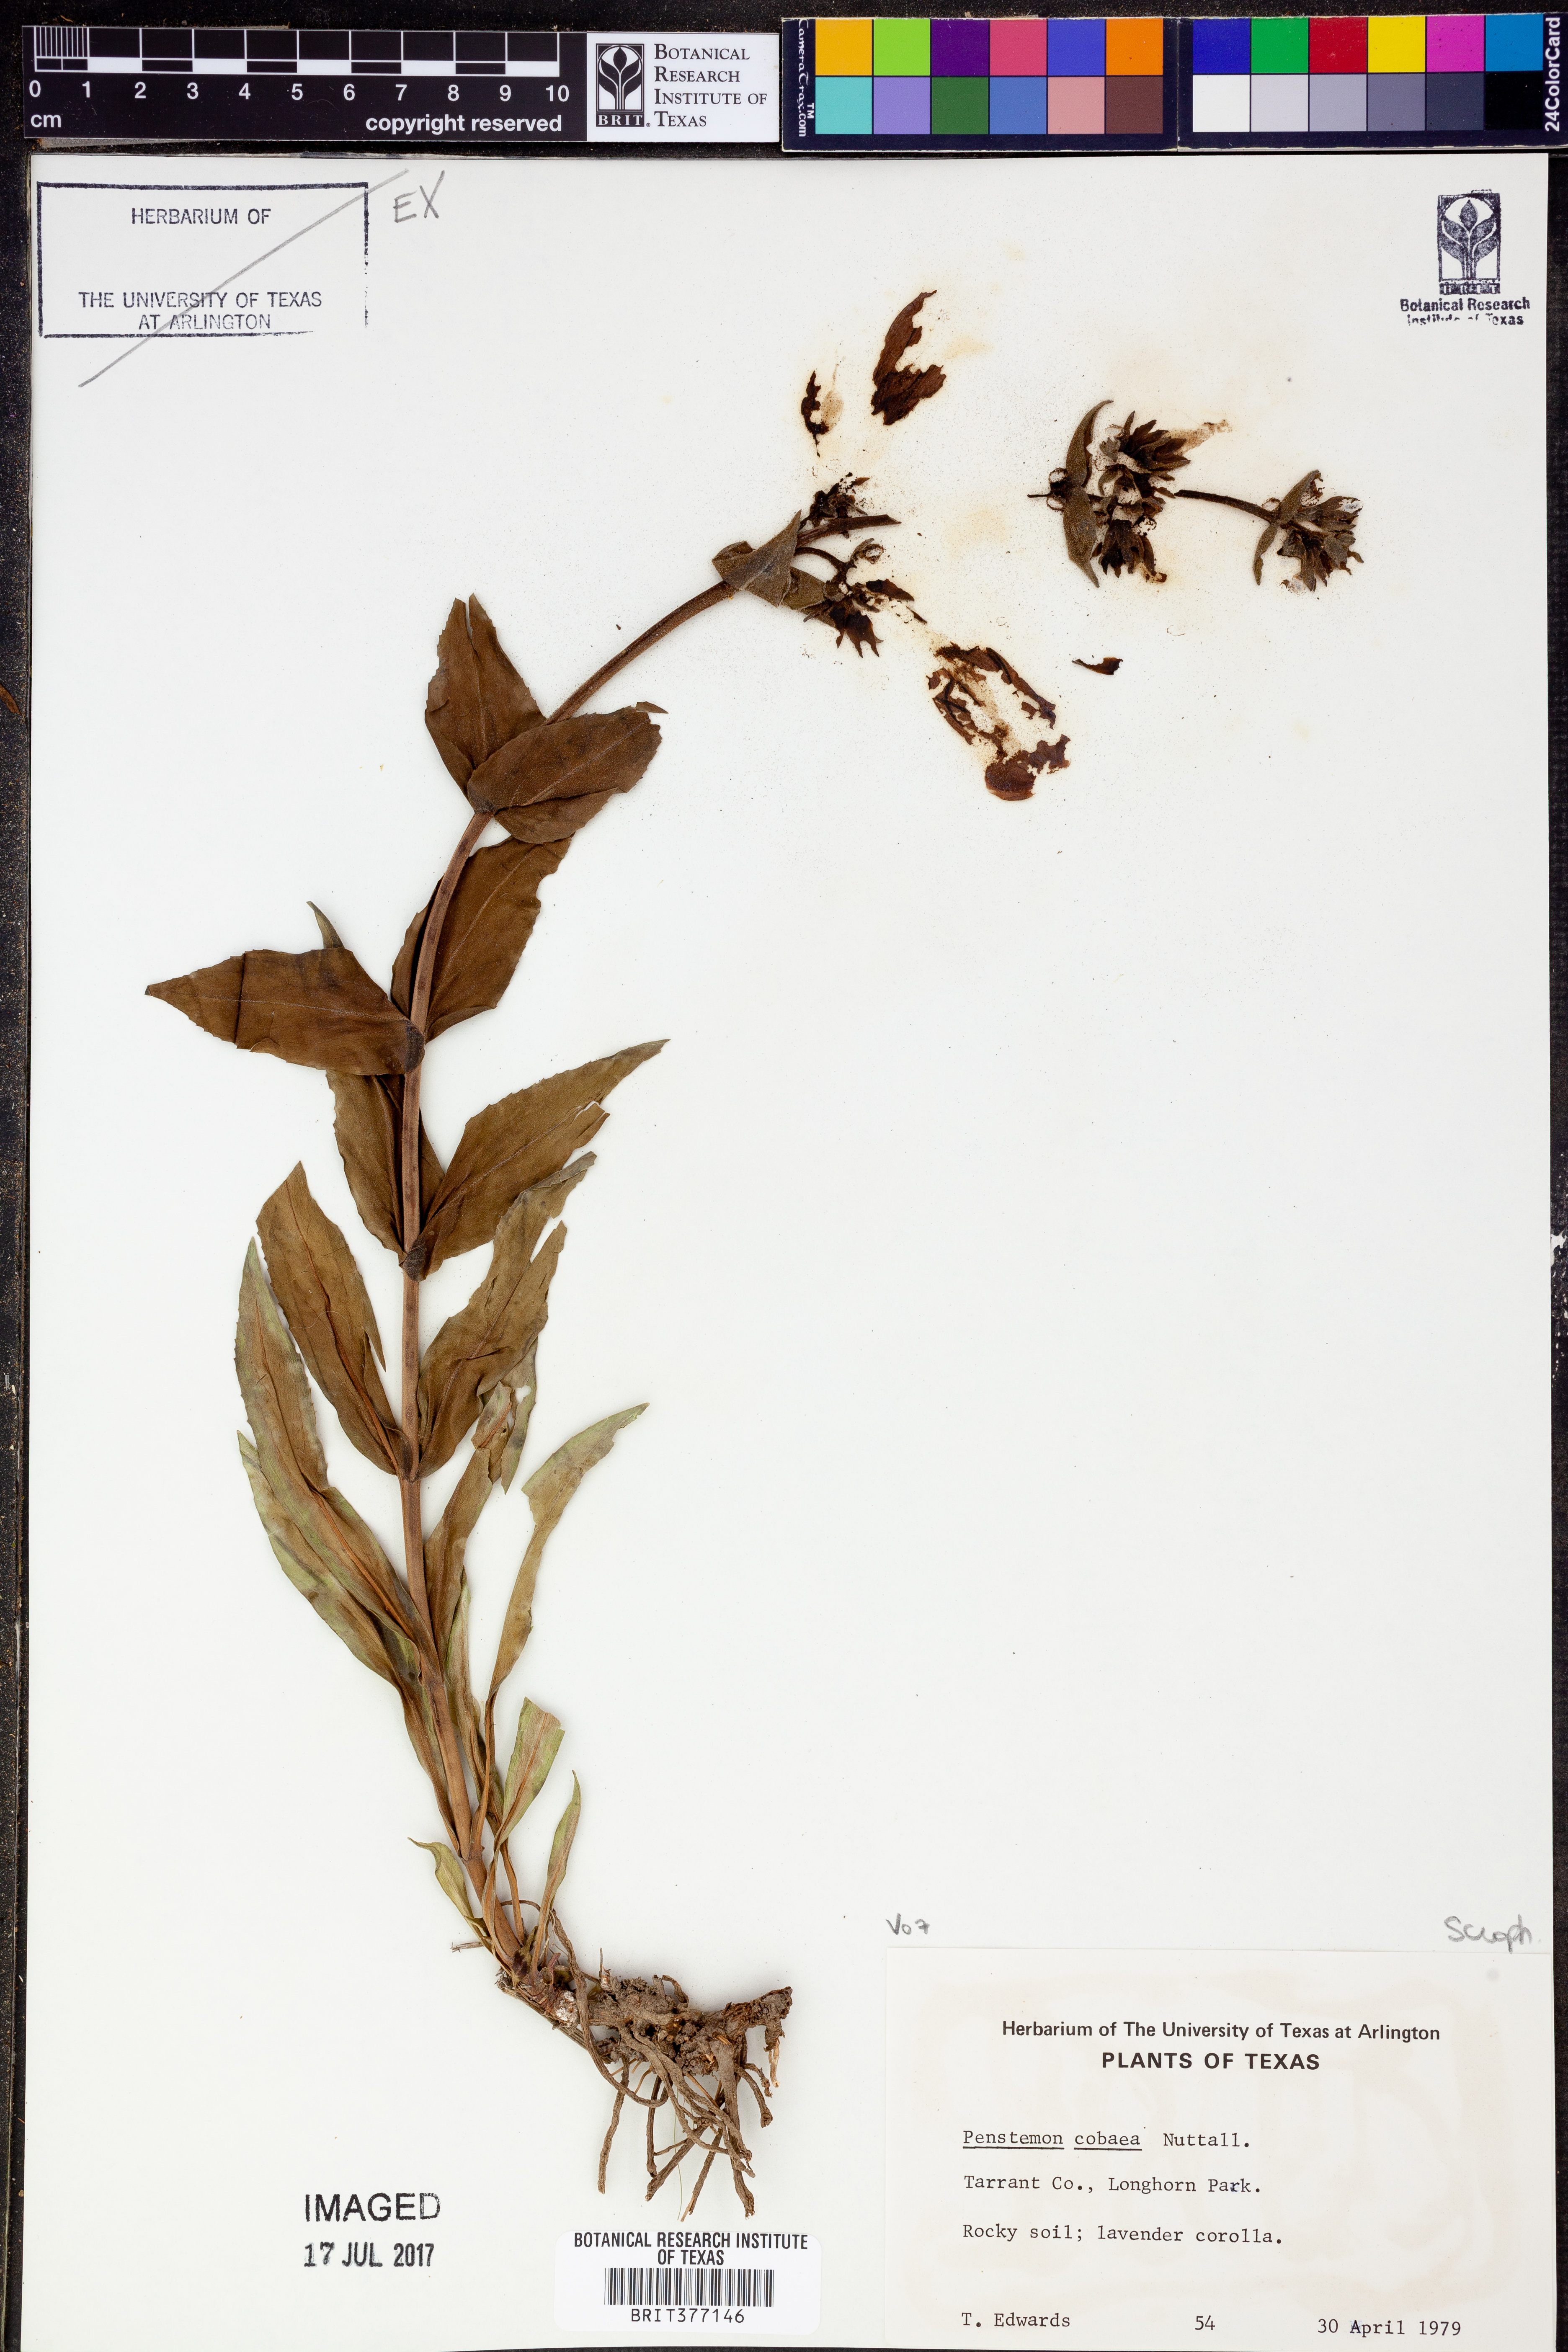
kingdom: Plantae
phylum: Tracheophyta
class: Magnoliopsida
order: Lamiales
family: Plantaginaceae
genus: Penstemon
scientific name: Penstemon cobaea
